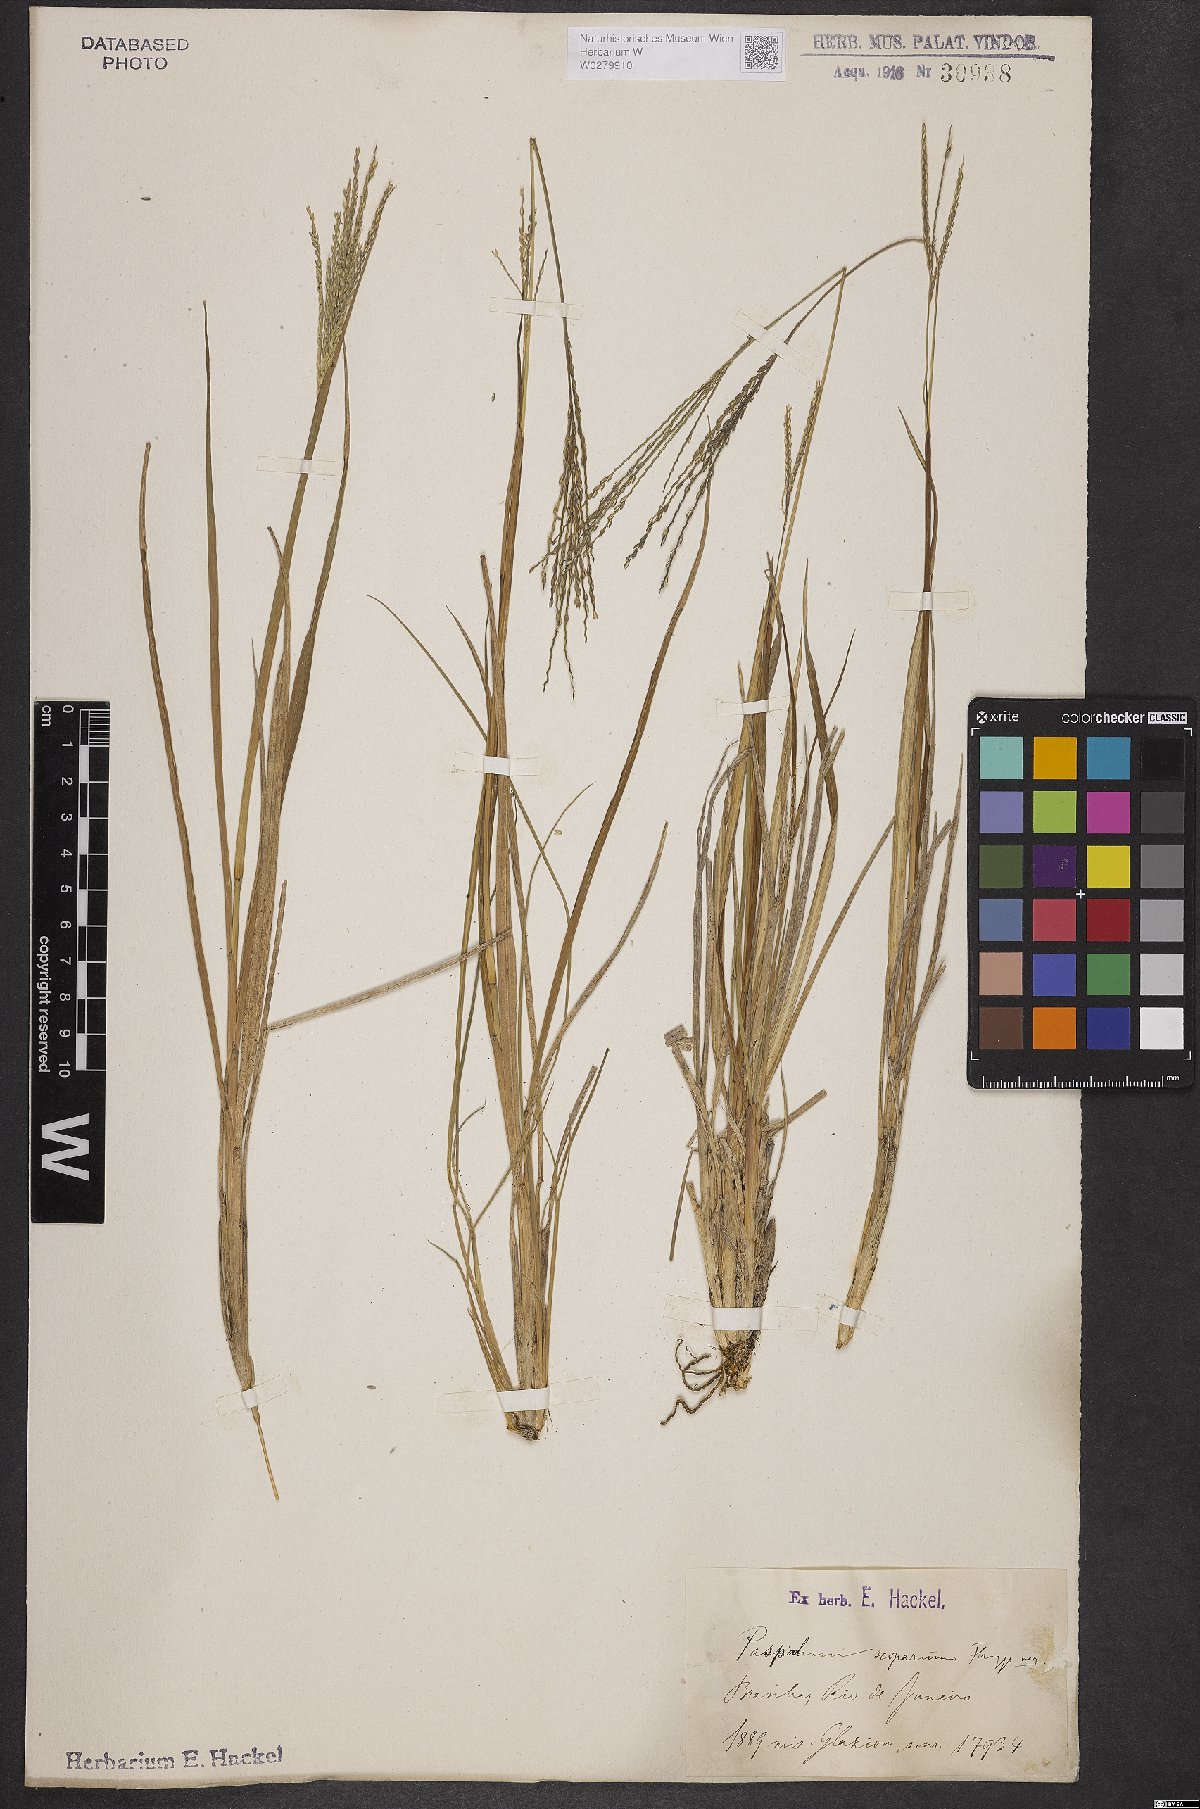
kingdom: Plantae
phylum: Tracheophyta
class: Liliopsida
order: Poales
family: Poaceae
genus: Axonopus
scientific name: Axonopus scoparius
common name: Imperial grass
